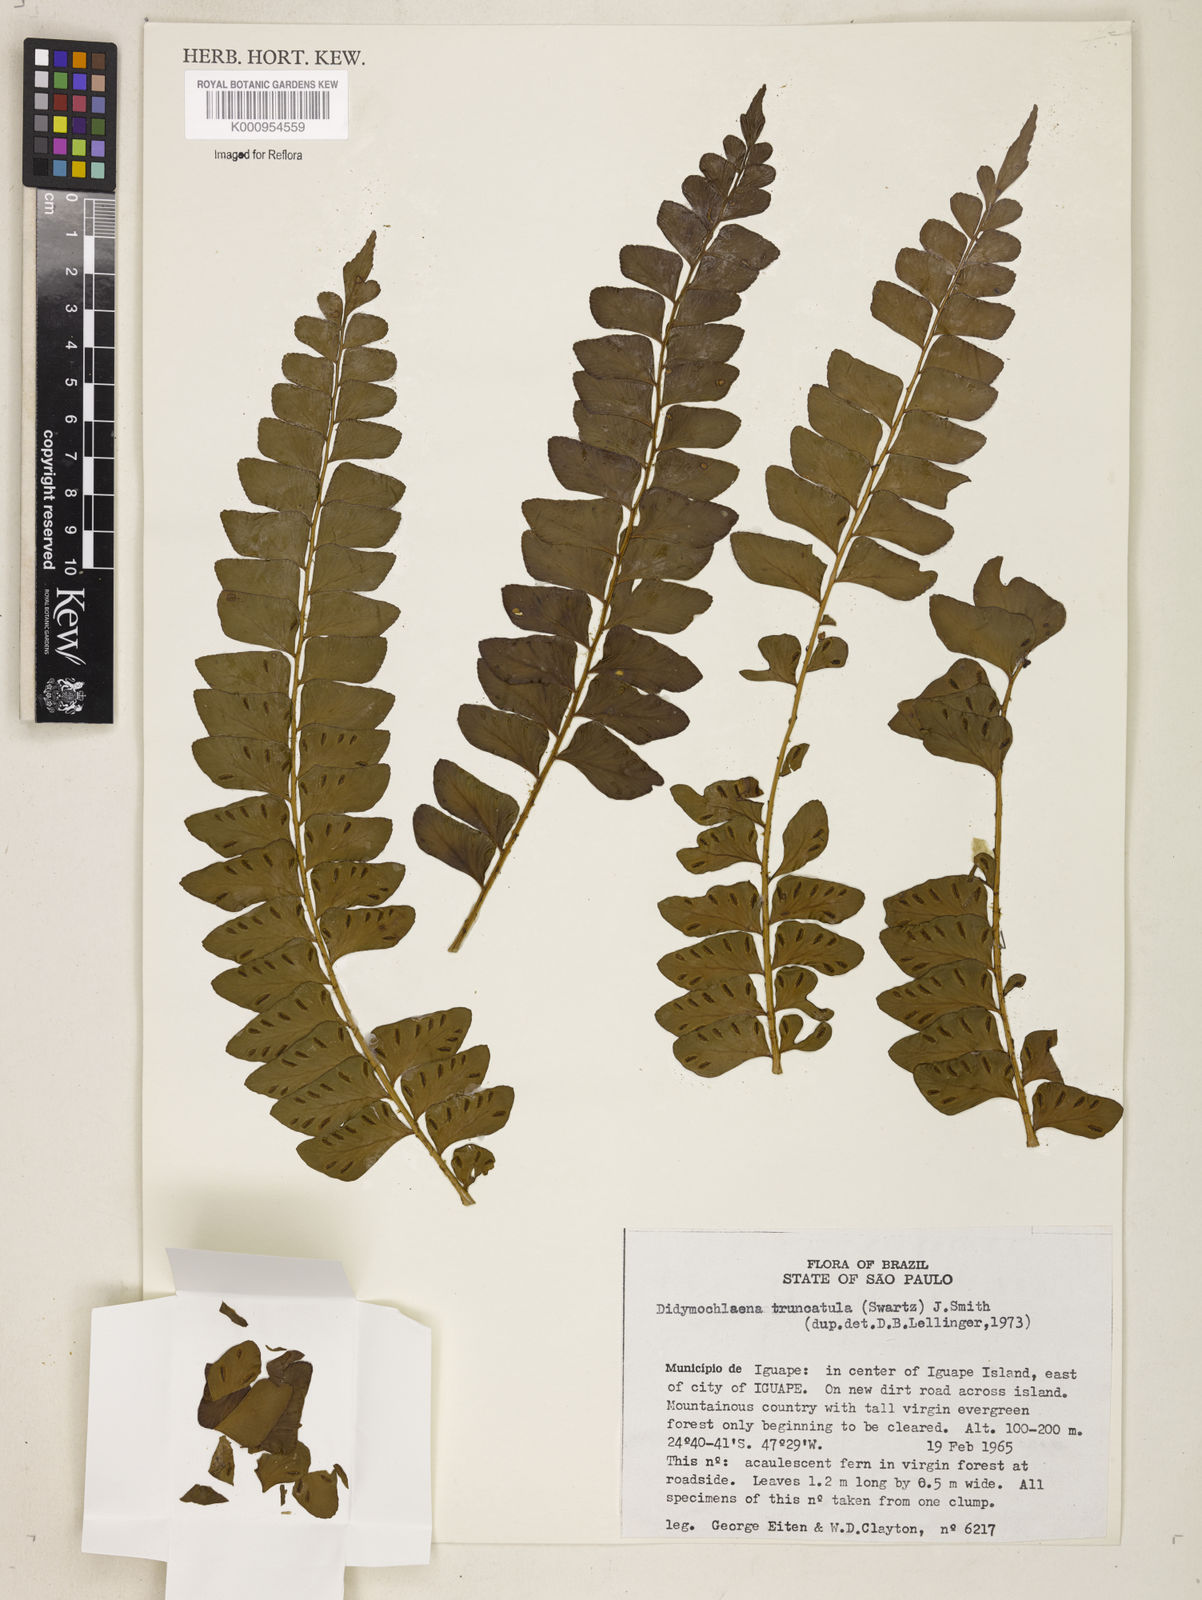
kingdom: Plantae
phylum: Tracheophyta
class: Polypodiopsida
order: Polypodiales
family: Didymochlaenaceae
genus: Didymochlaena
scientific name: Didymochlaena truncatula
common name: Mahogany fern
